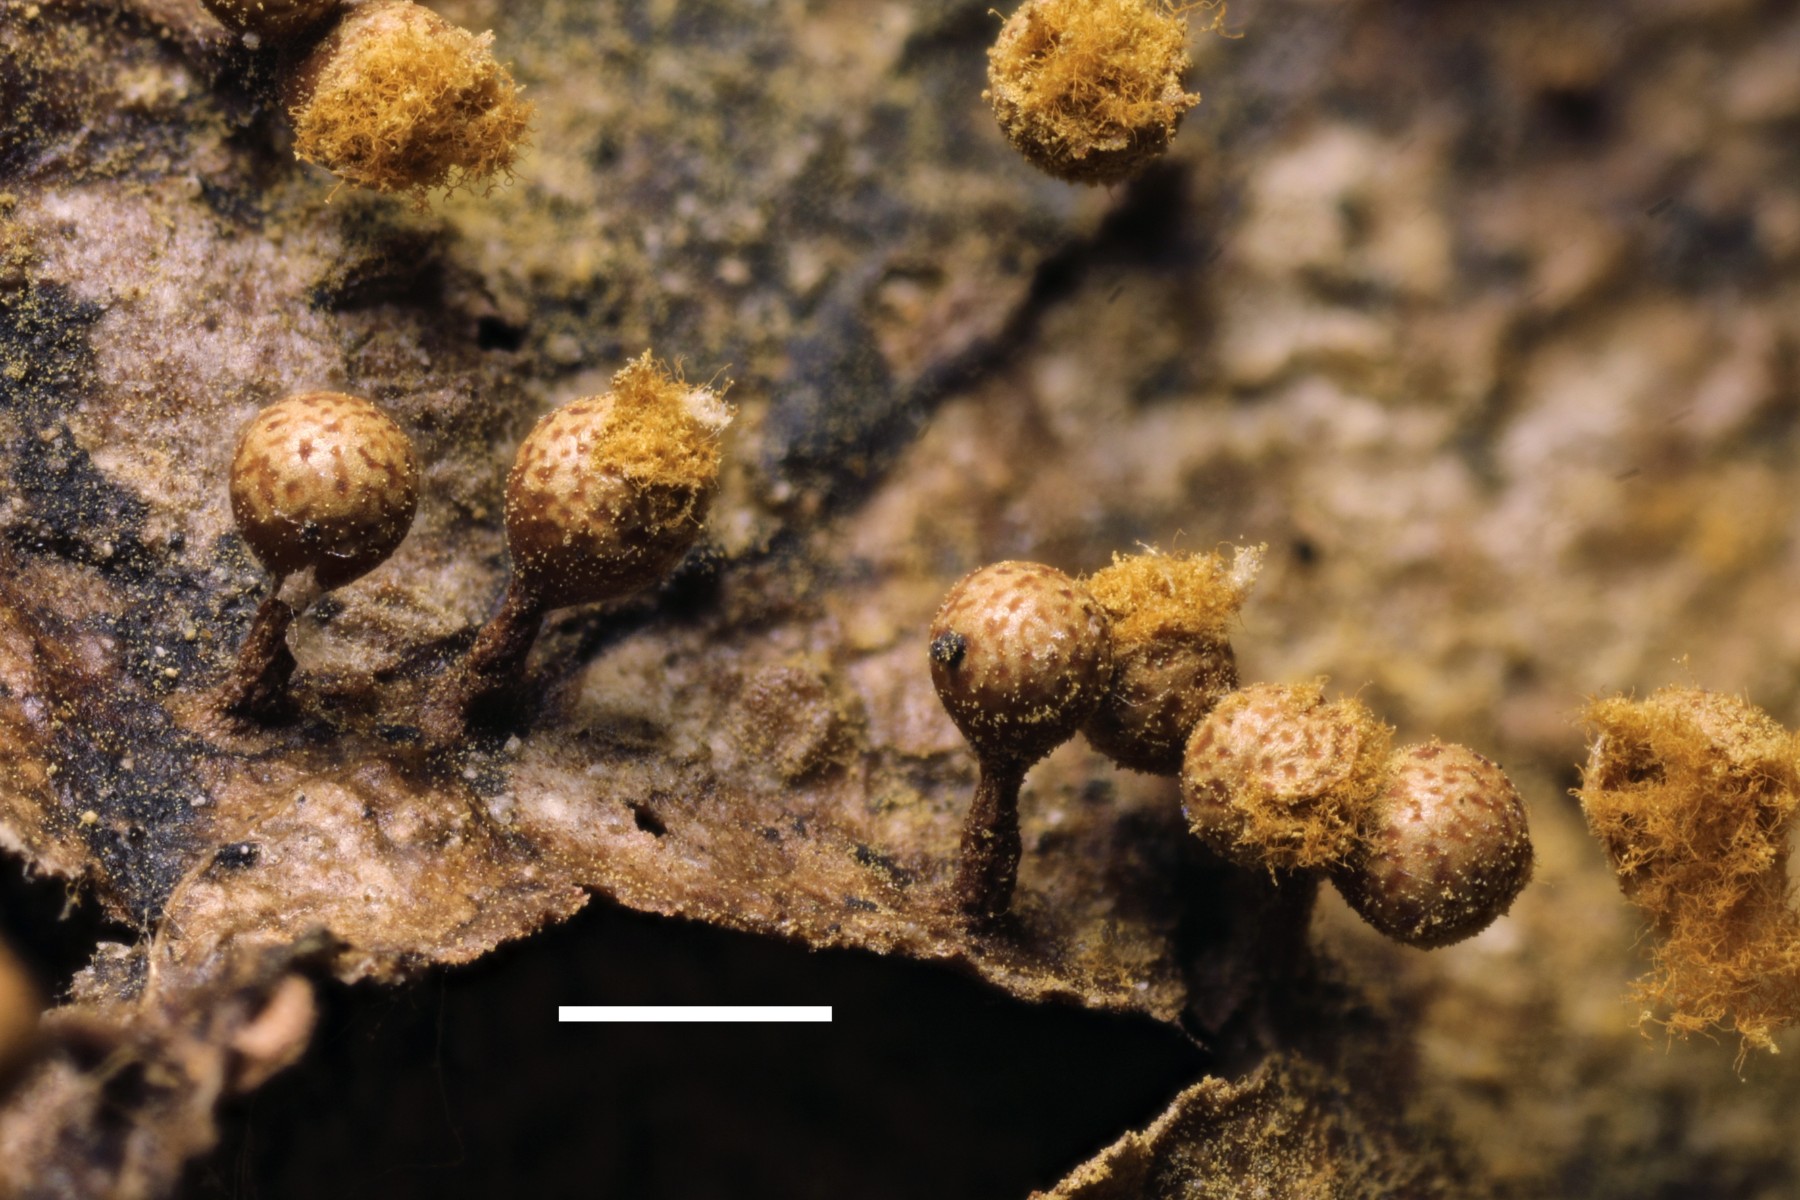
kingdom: Protozoa
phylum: Mycetozoa
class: Myxomycetes
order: Trichiales
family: Trichiaceae
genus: Trichia
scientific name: Trichia ambigua
